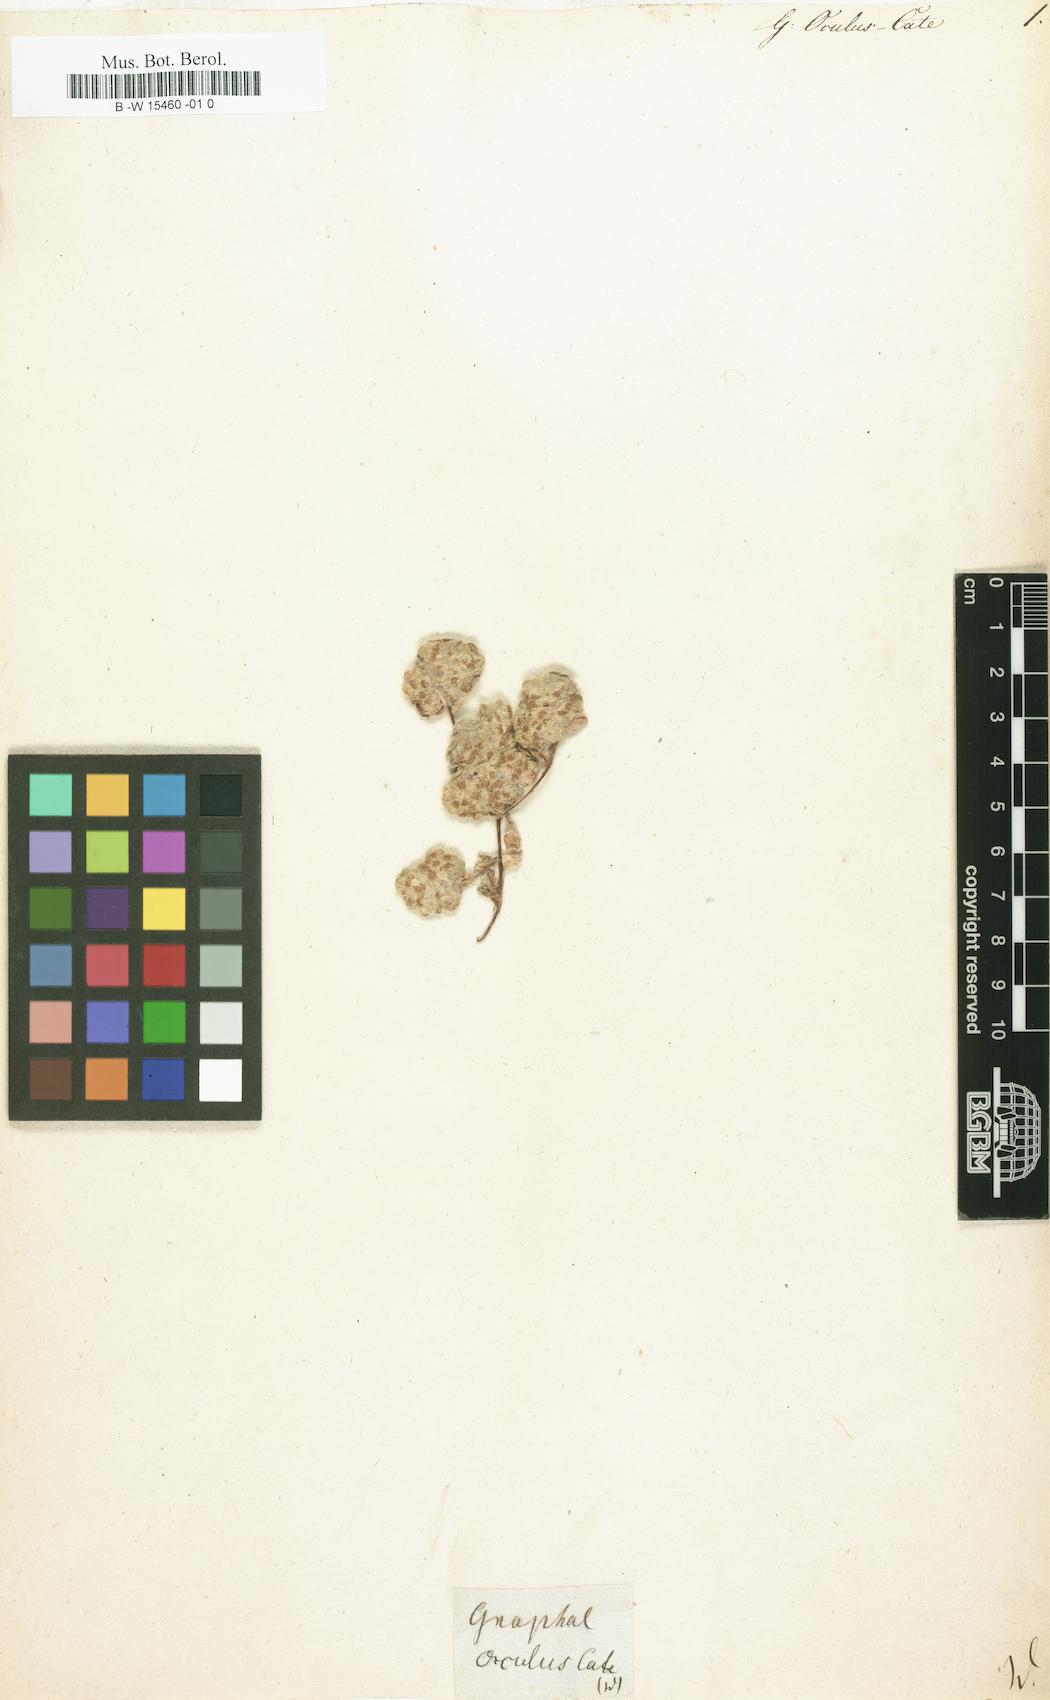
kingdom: Plantae
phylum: Tracheophyta
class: Magnoliopsida
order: Asterales
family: Asteraceae
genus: Galeomma
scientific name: Galeomma oculus-cati
